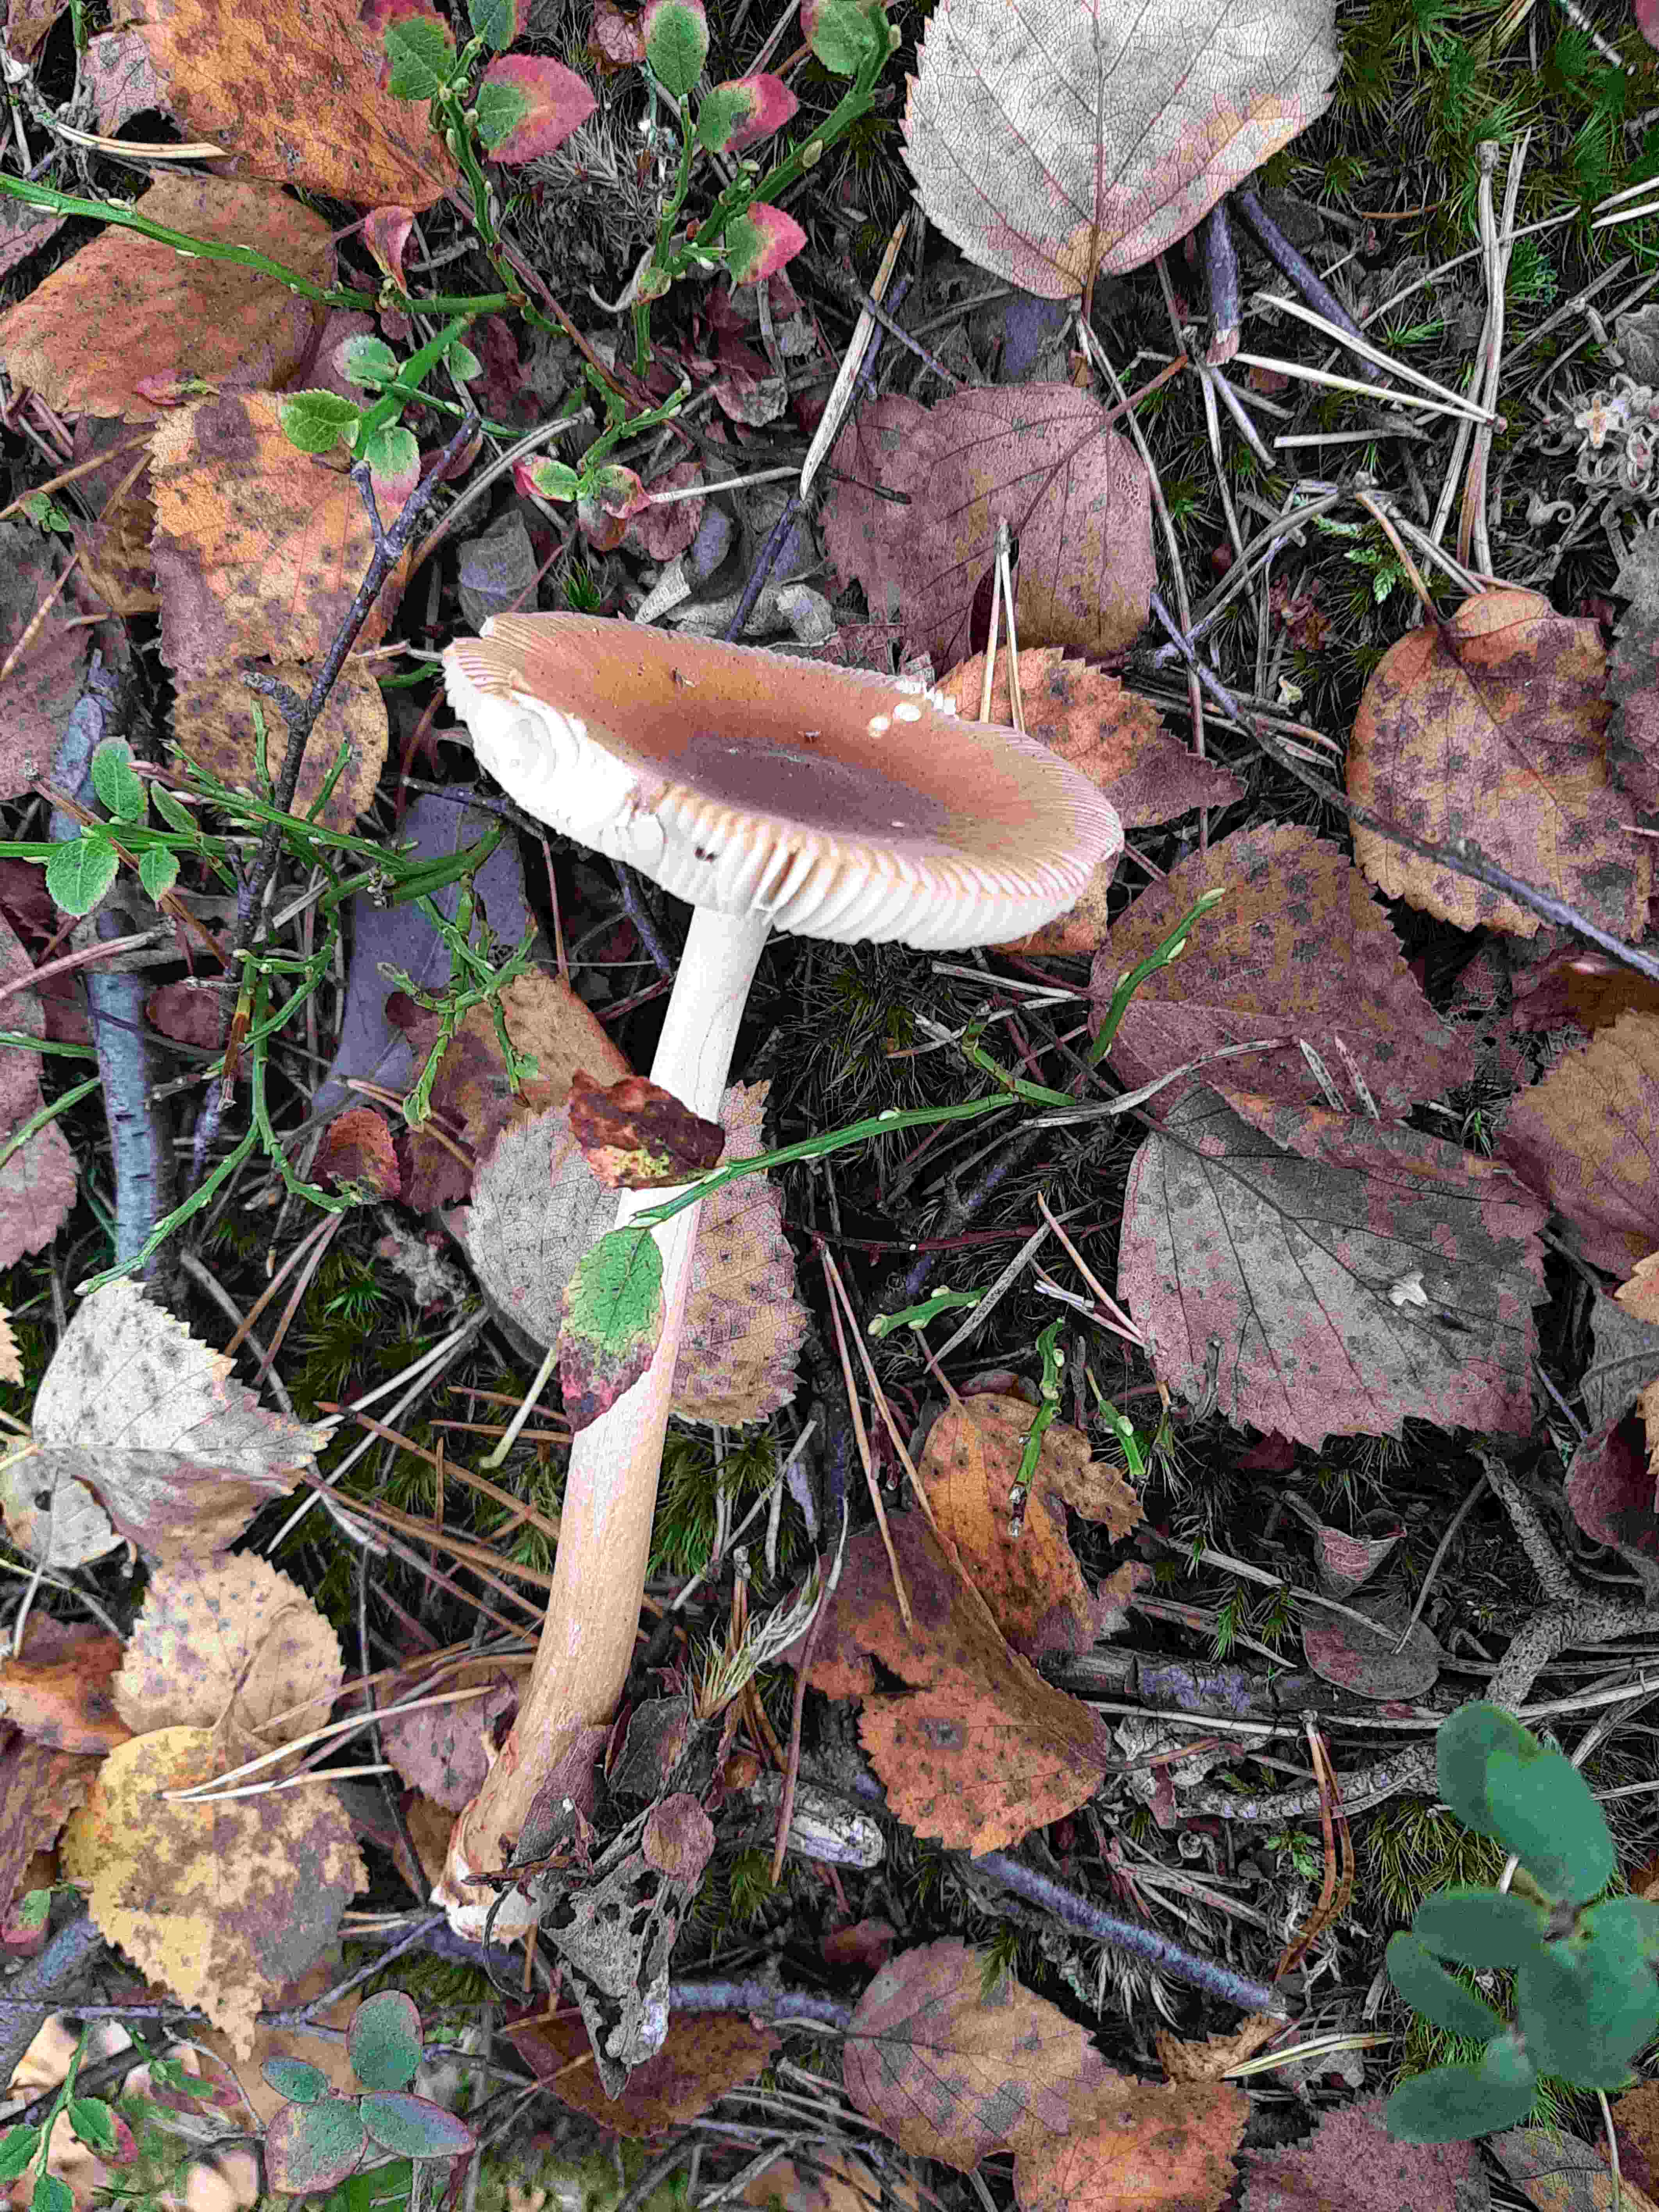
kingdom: Fungi
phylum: Basidiomycota
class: Agaricomycetes
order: Agaricales
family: Amanitaceae
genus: Amanita
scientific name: Amanita fulva
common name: brun kam-fluesvamp
